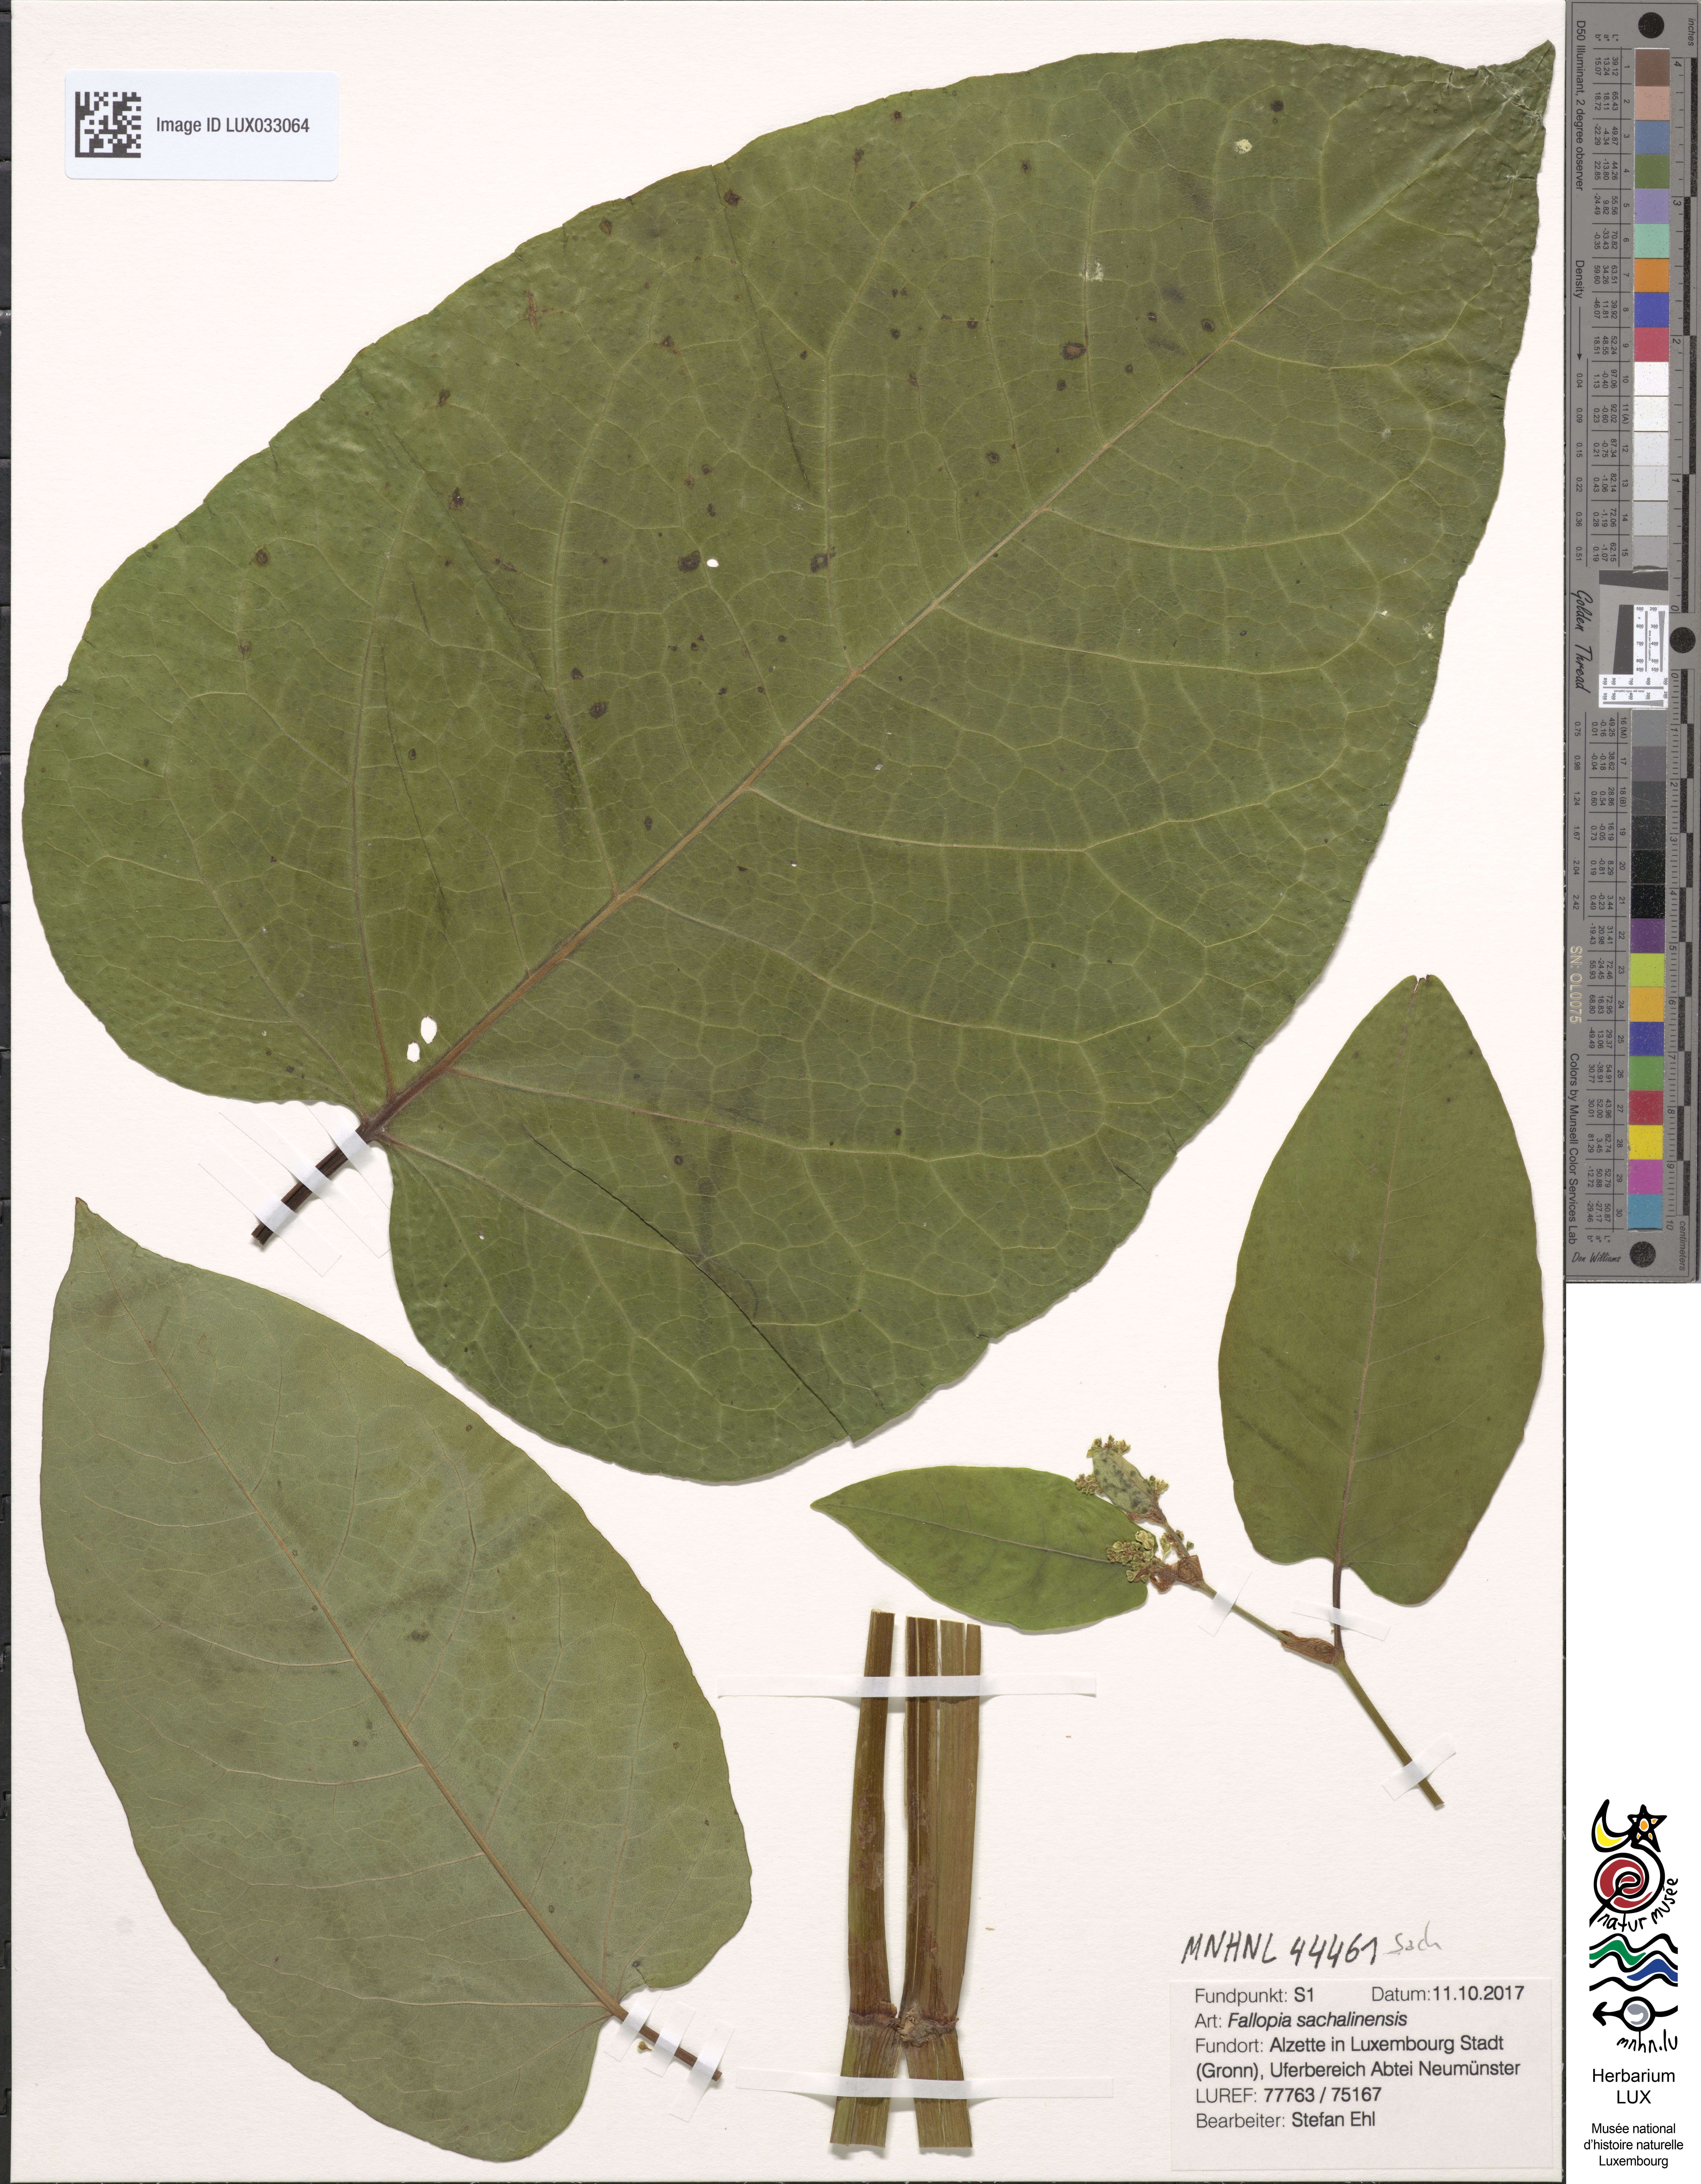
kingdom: Plantae
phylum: Tracheophyta
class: Magnoliopsida
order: Caryophyllales
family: Polygonaceae
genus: Reynoutria
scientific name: Reynoutria sachalinensis
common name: Giant knotweed
